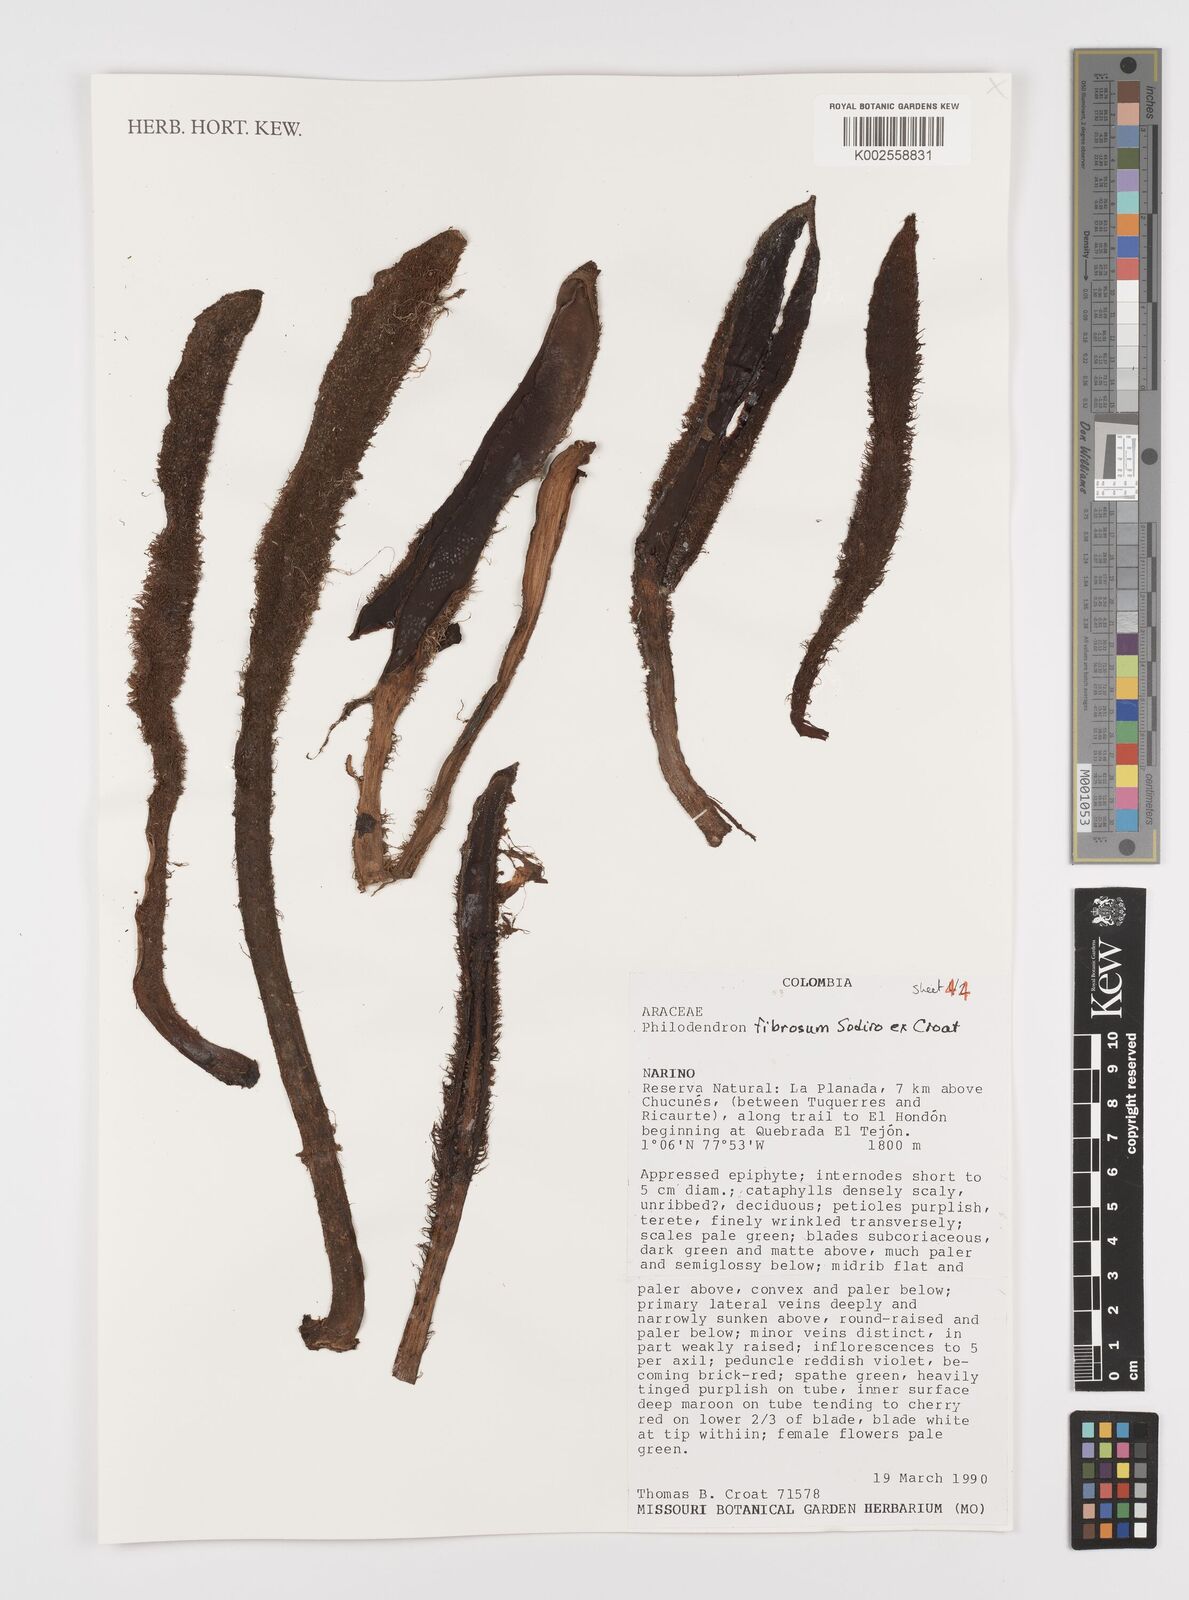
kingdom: Plantae
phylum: Tracheophyta
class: Liliopsida
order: Alismatales
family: Araceae
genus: Philodendron
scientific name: Philodendron fibrosum
